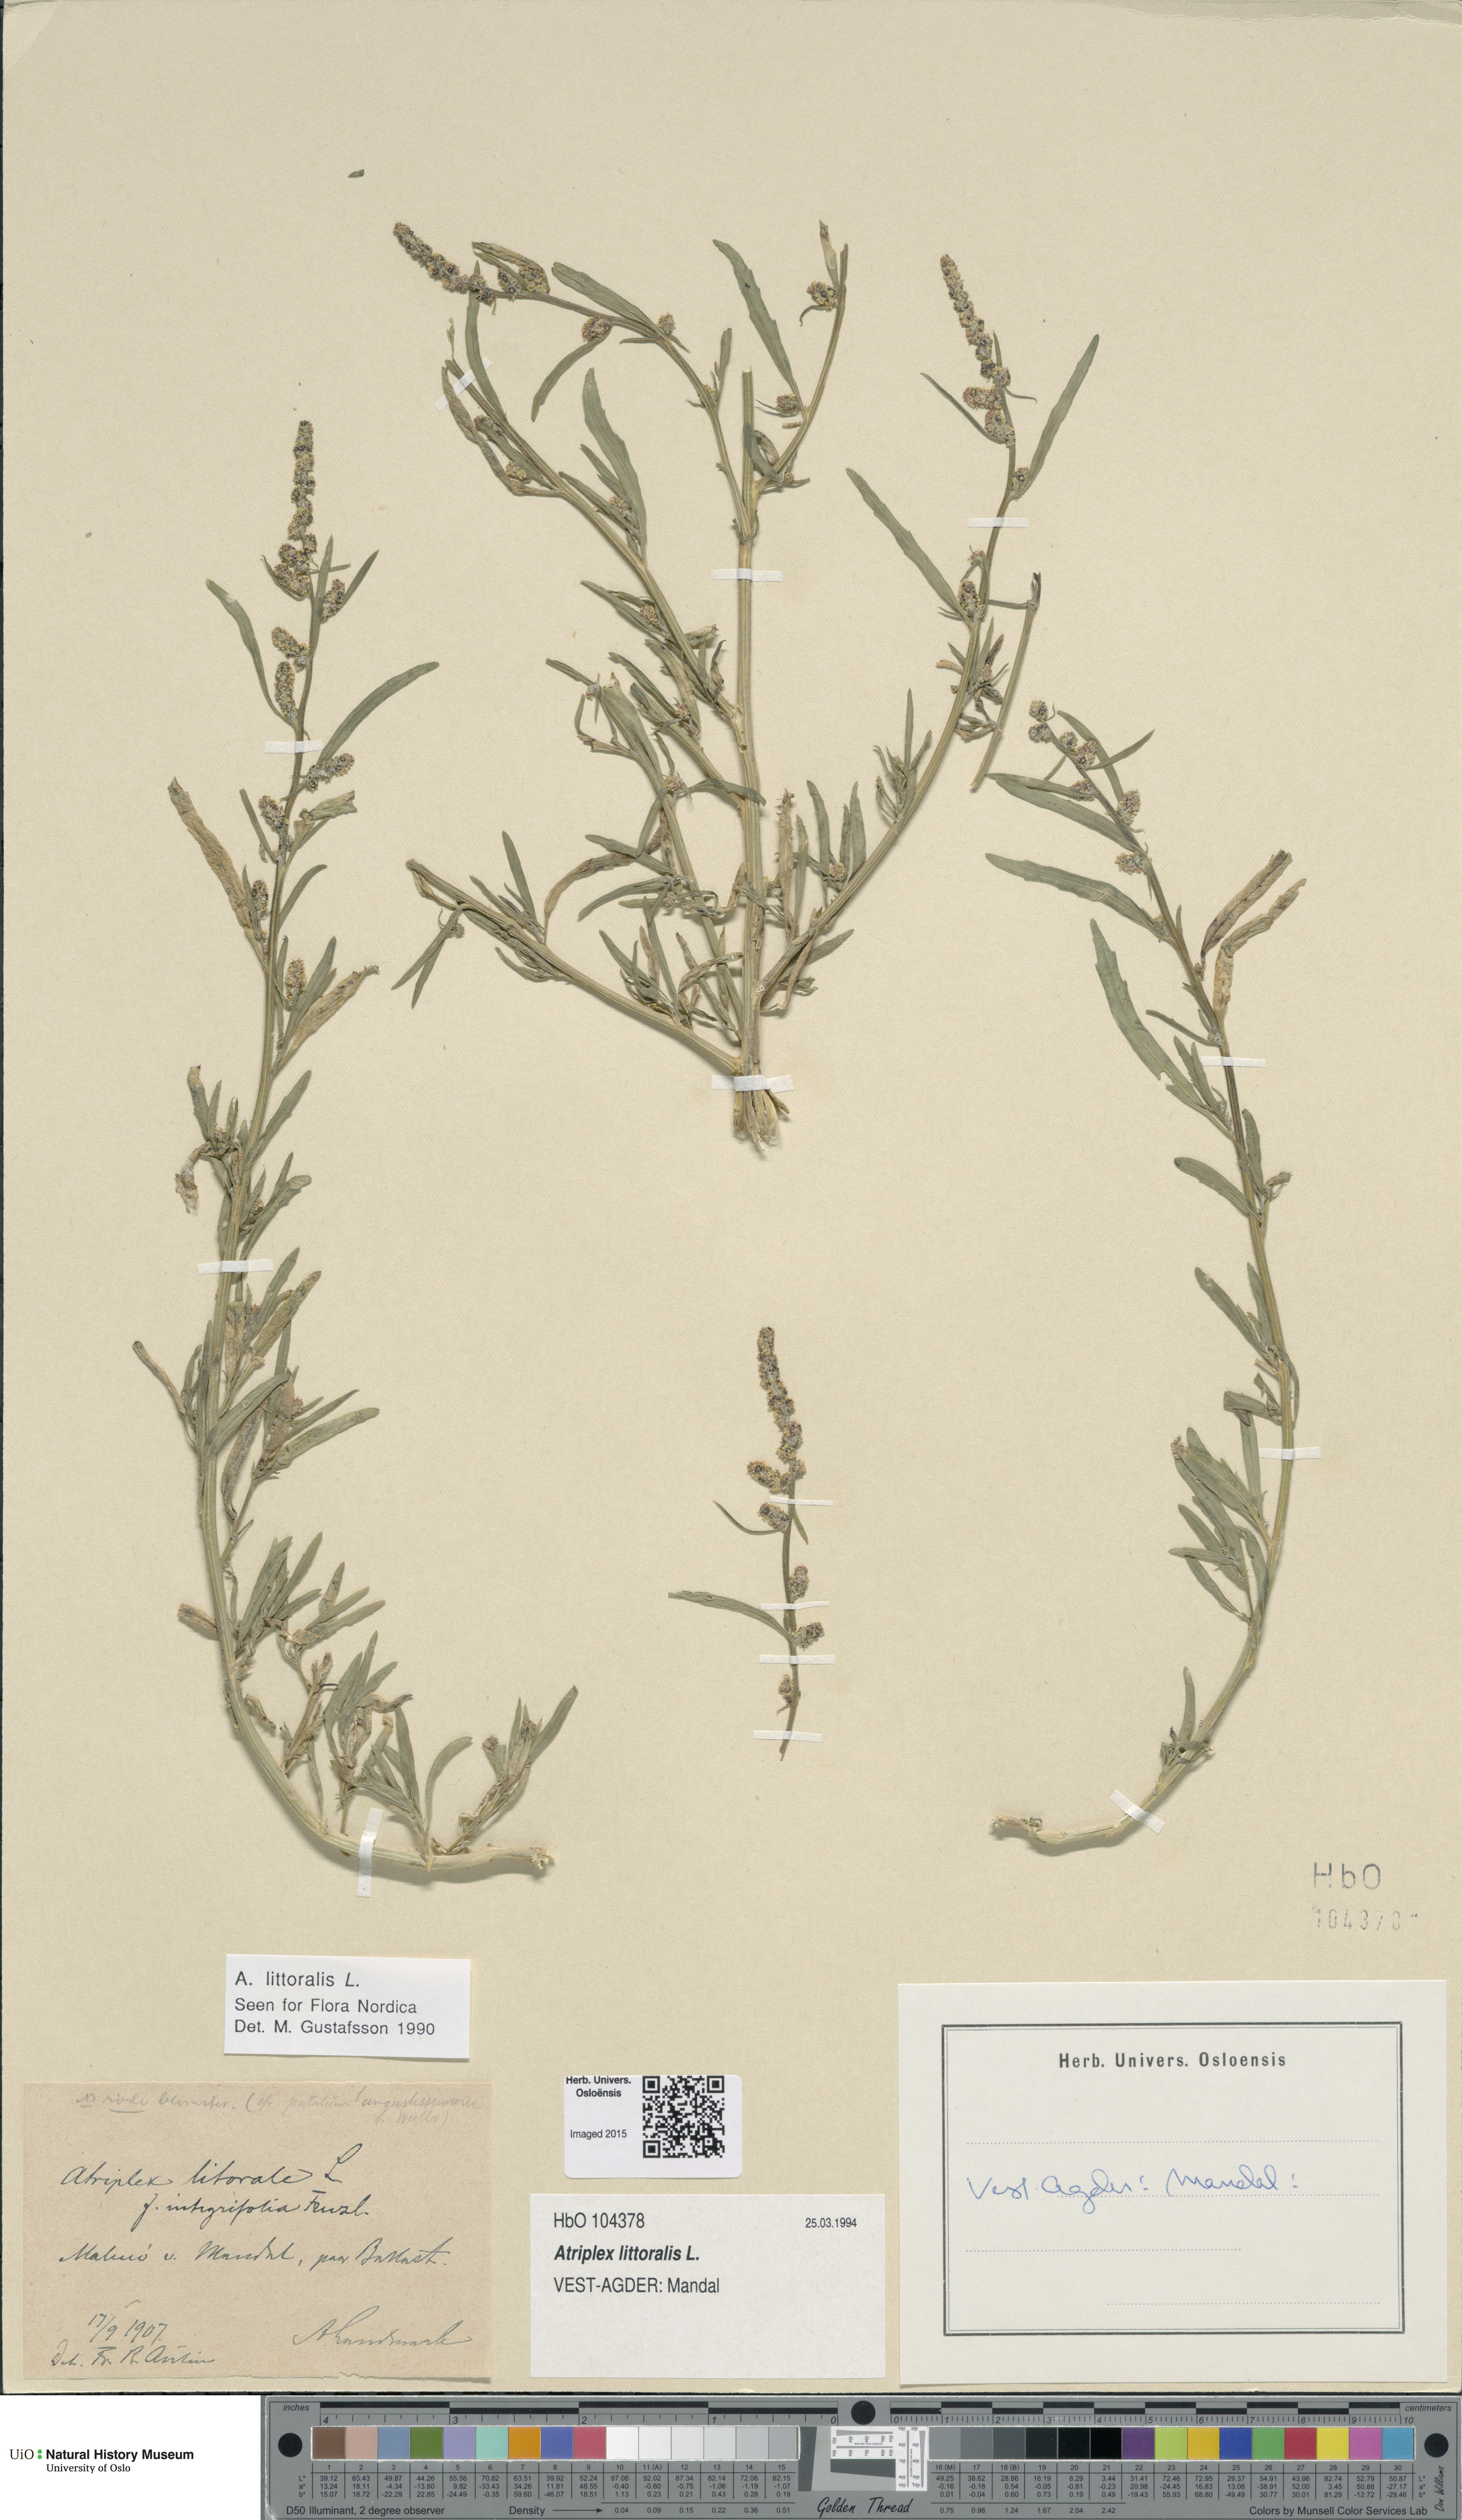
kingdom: Plantae
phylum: Tracheophyta
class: Magnoliopsida
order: Caryophyllales
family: Amaranthaceae
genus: Atriplex
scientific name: Atriplex littoralis
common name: Grass-leaved orache
